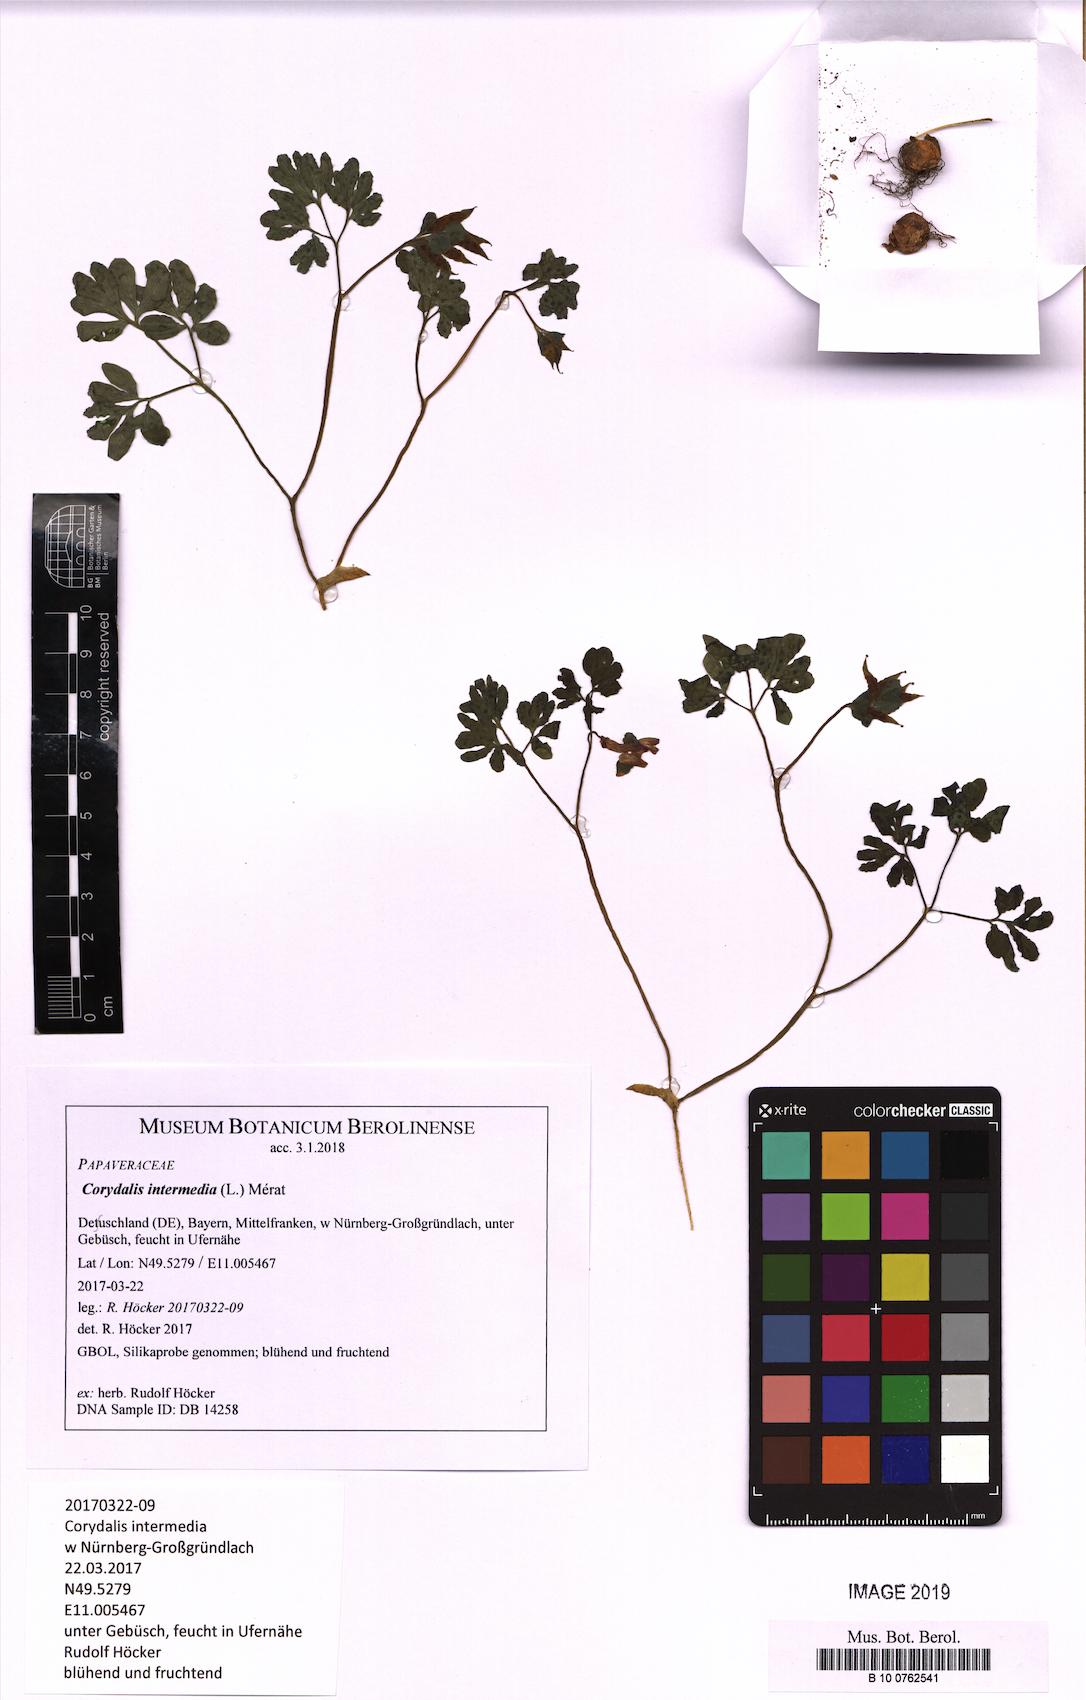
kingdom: Plantae
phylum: Tracheophyta
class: Magnoliopsida
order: Ranunculales
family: Papaveraceae
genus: Corydalis
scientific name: Corydalis intermedia
